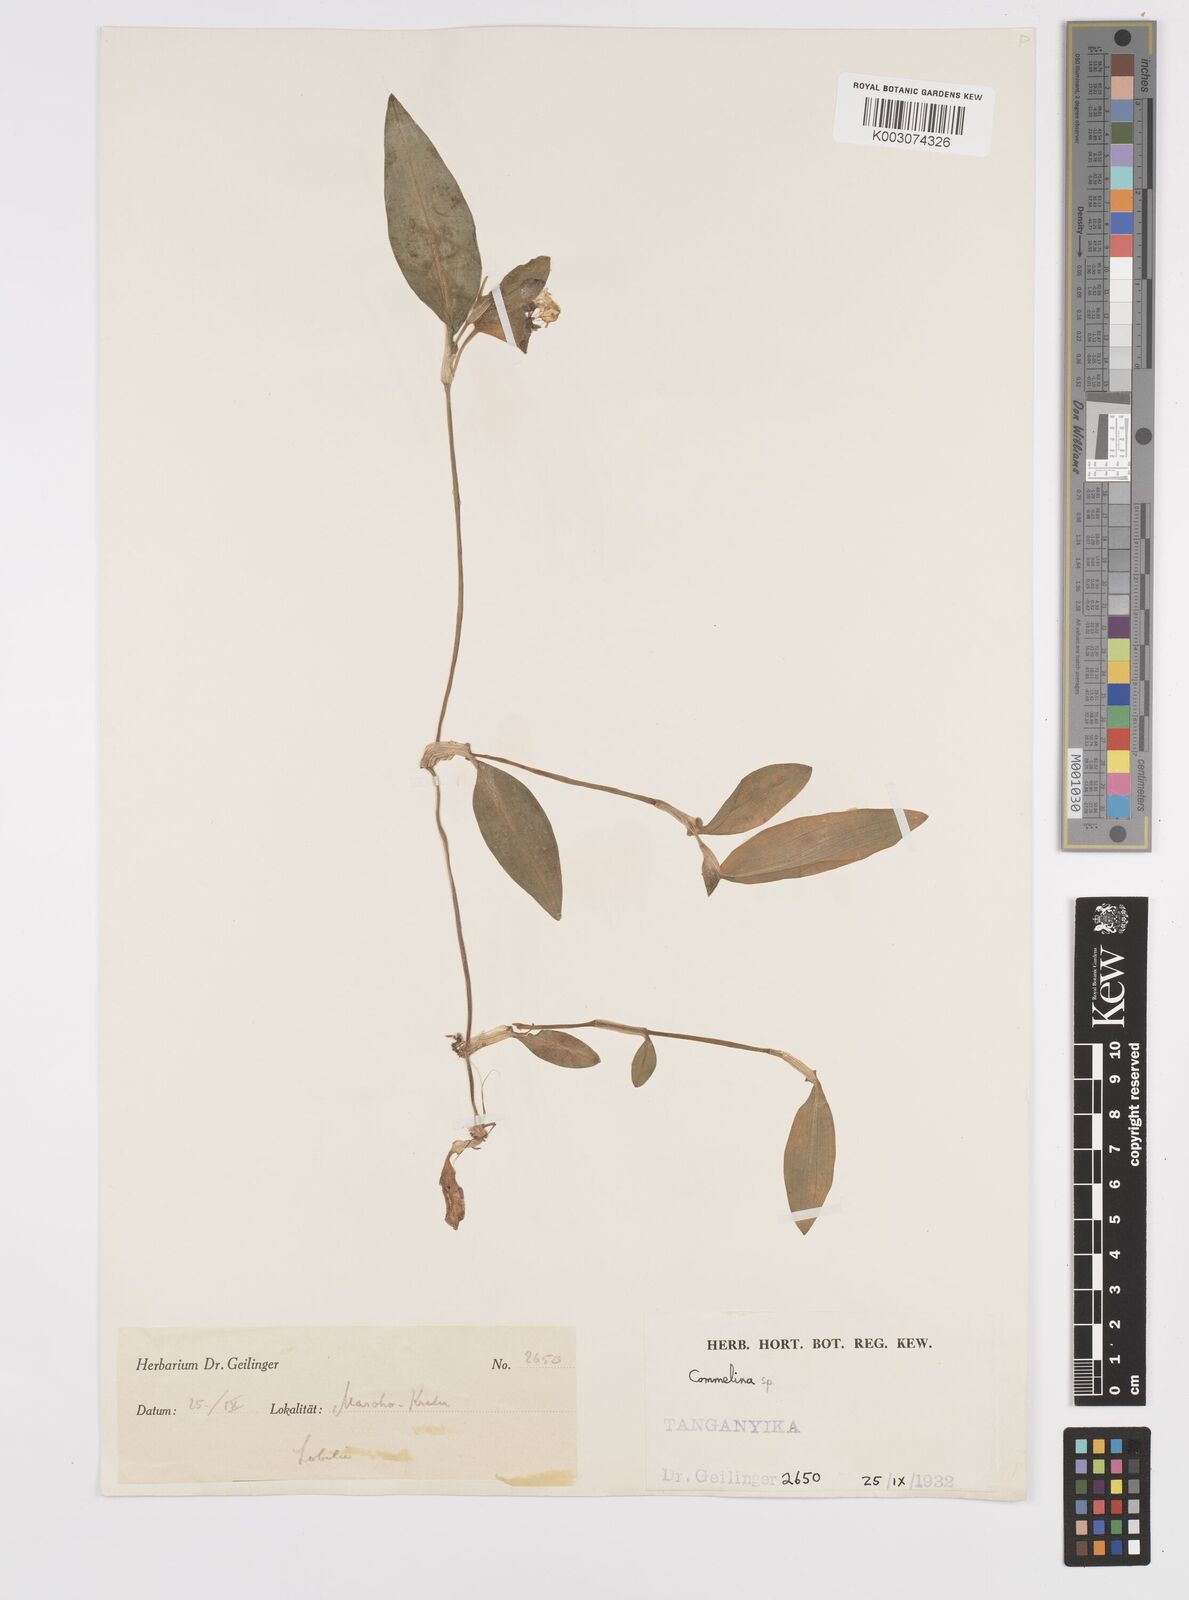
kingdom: Plantae
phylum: Tracheophyta
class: Liliopsida
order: Commelinales
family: Commelinaceae
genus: Commelina
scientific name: Commelina benghalensis
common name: Jio
